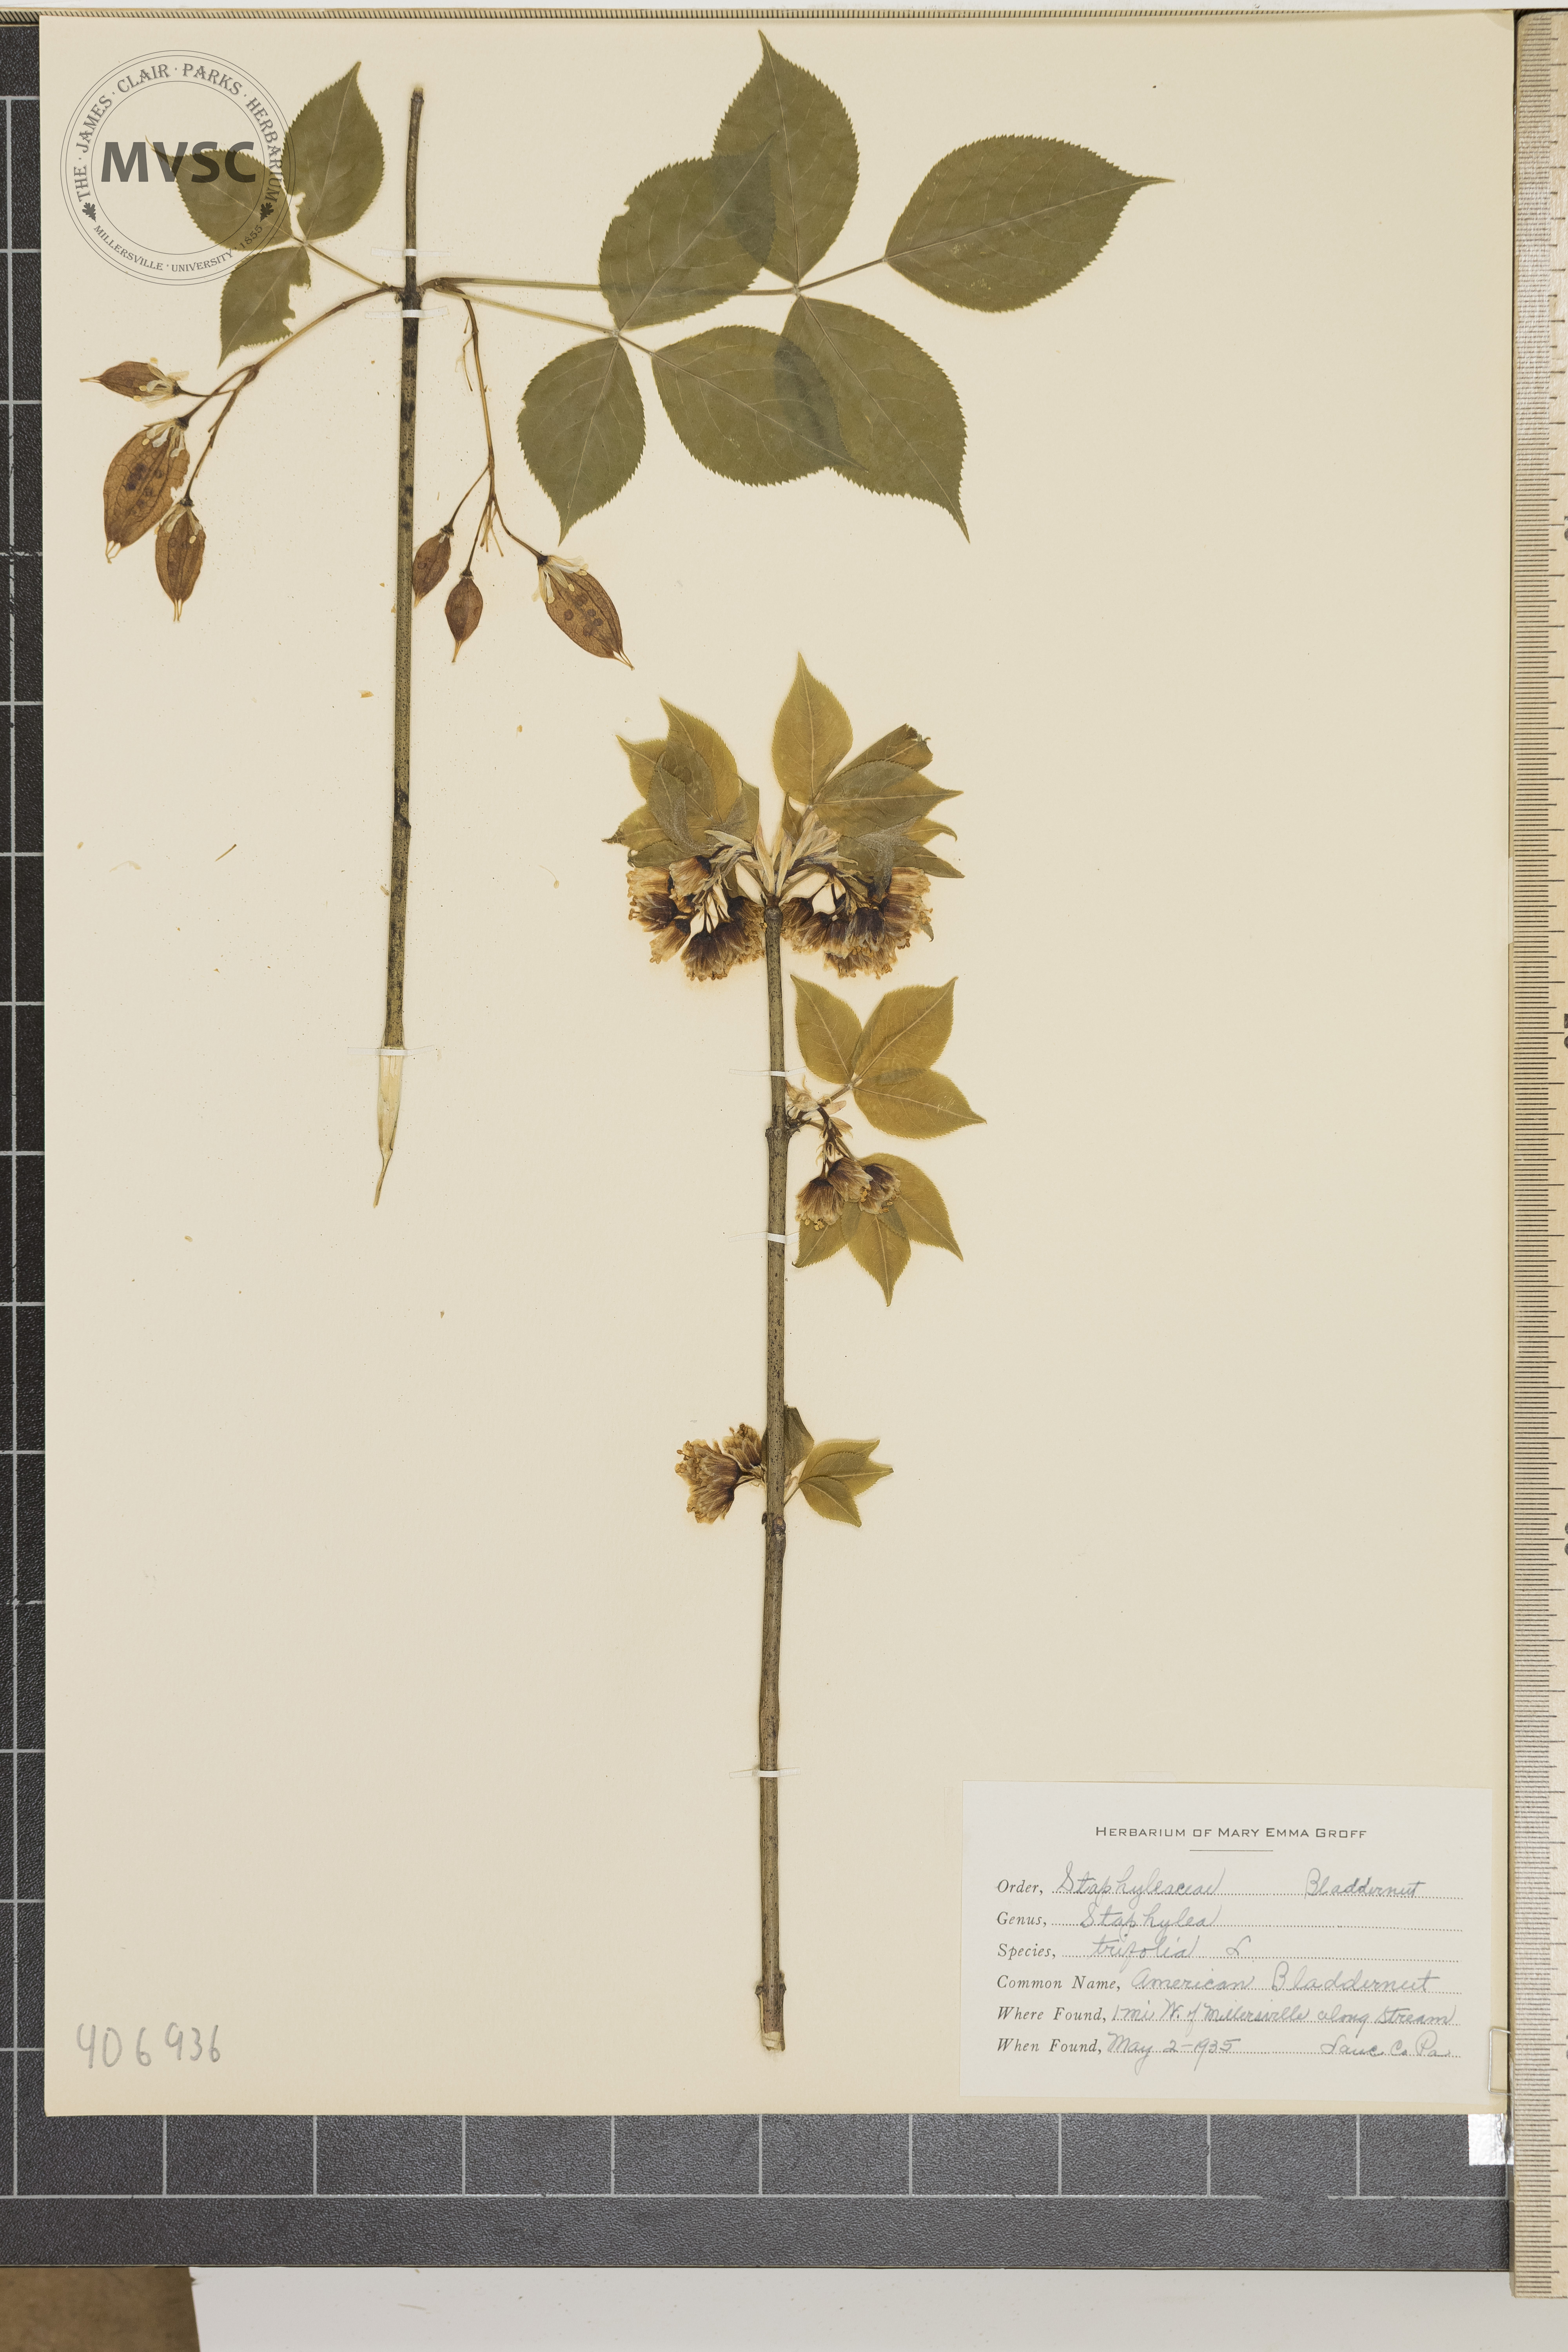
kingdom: Plantae
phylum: Tracheophyta
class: Magnoliopsida
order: Crossosomatales
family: Staphyleaceae
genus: Staphylea
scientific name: Staphylea trifolia
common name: American Bladdernut
